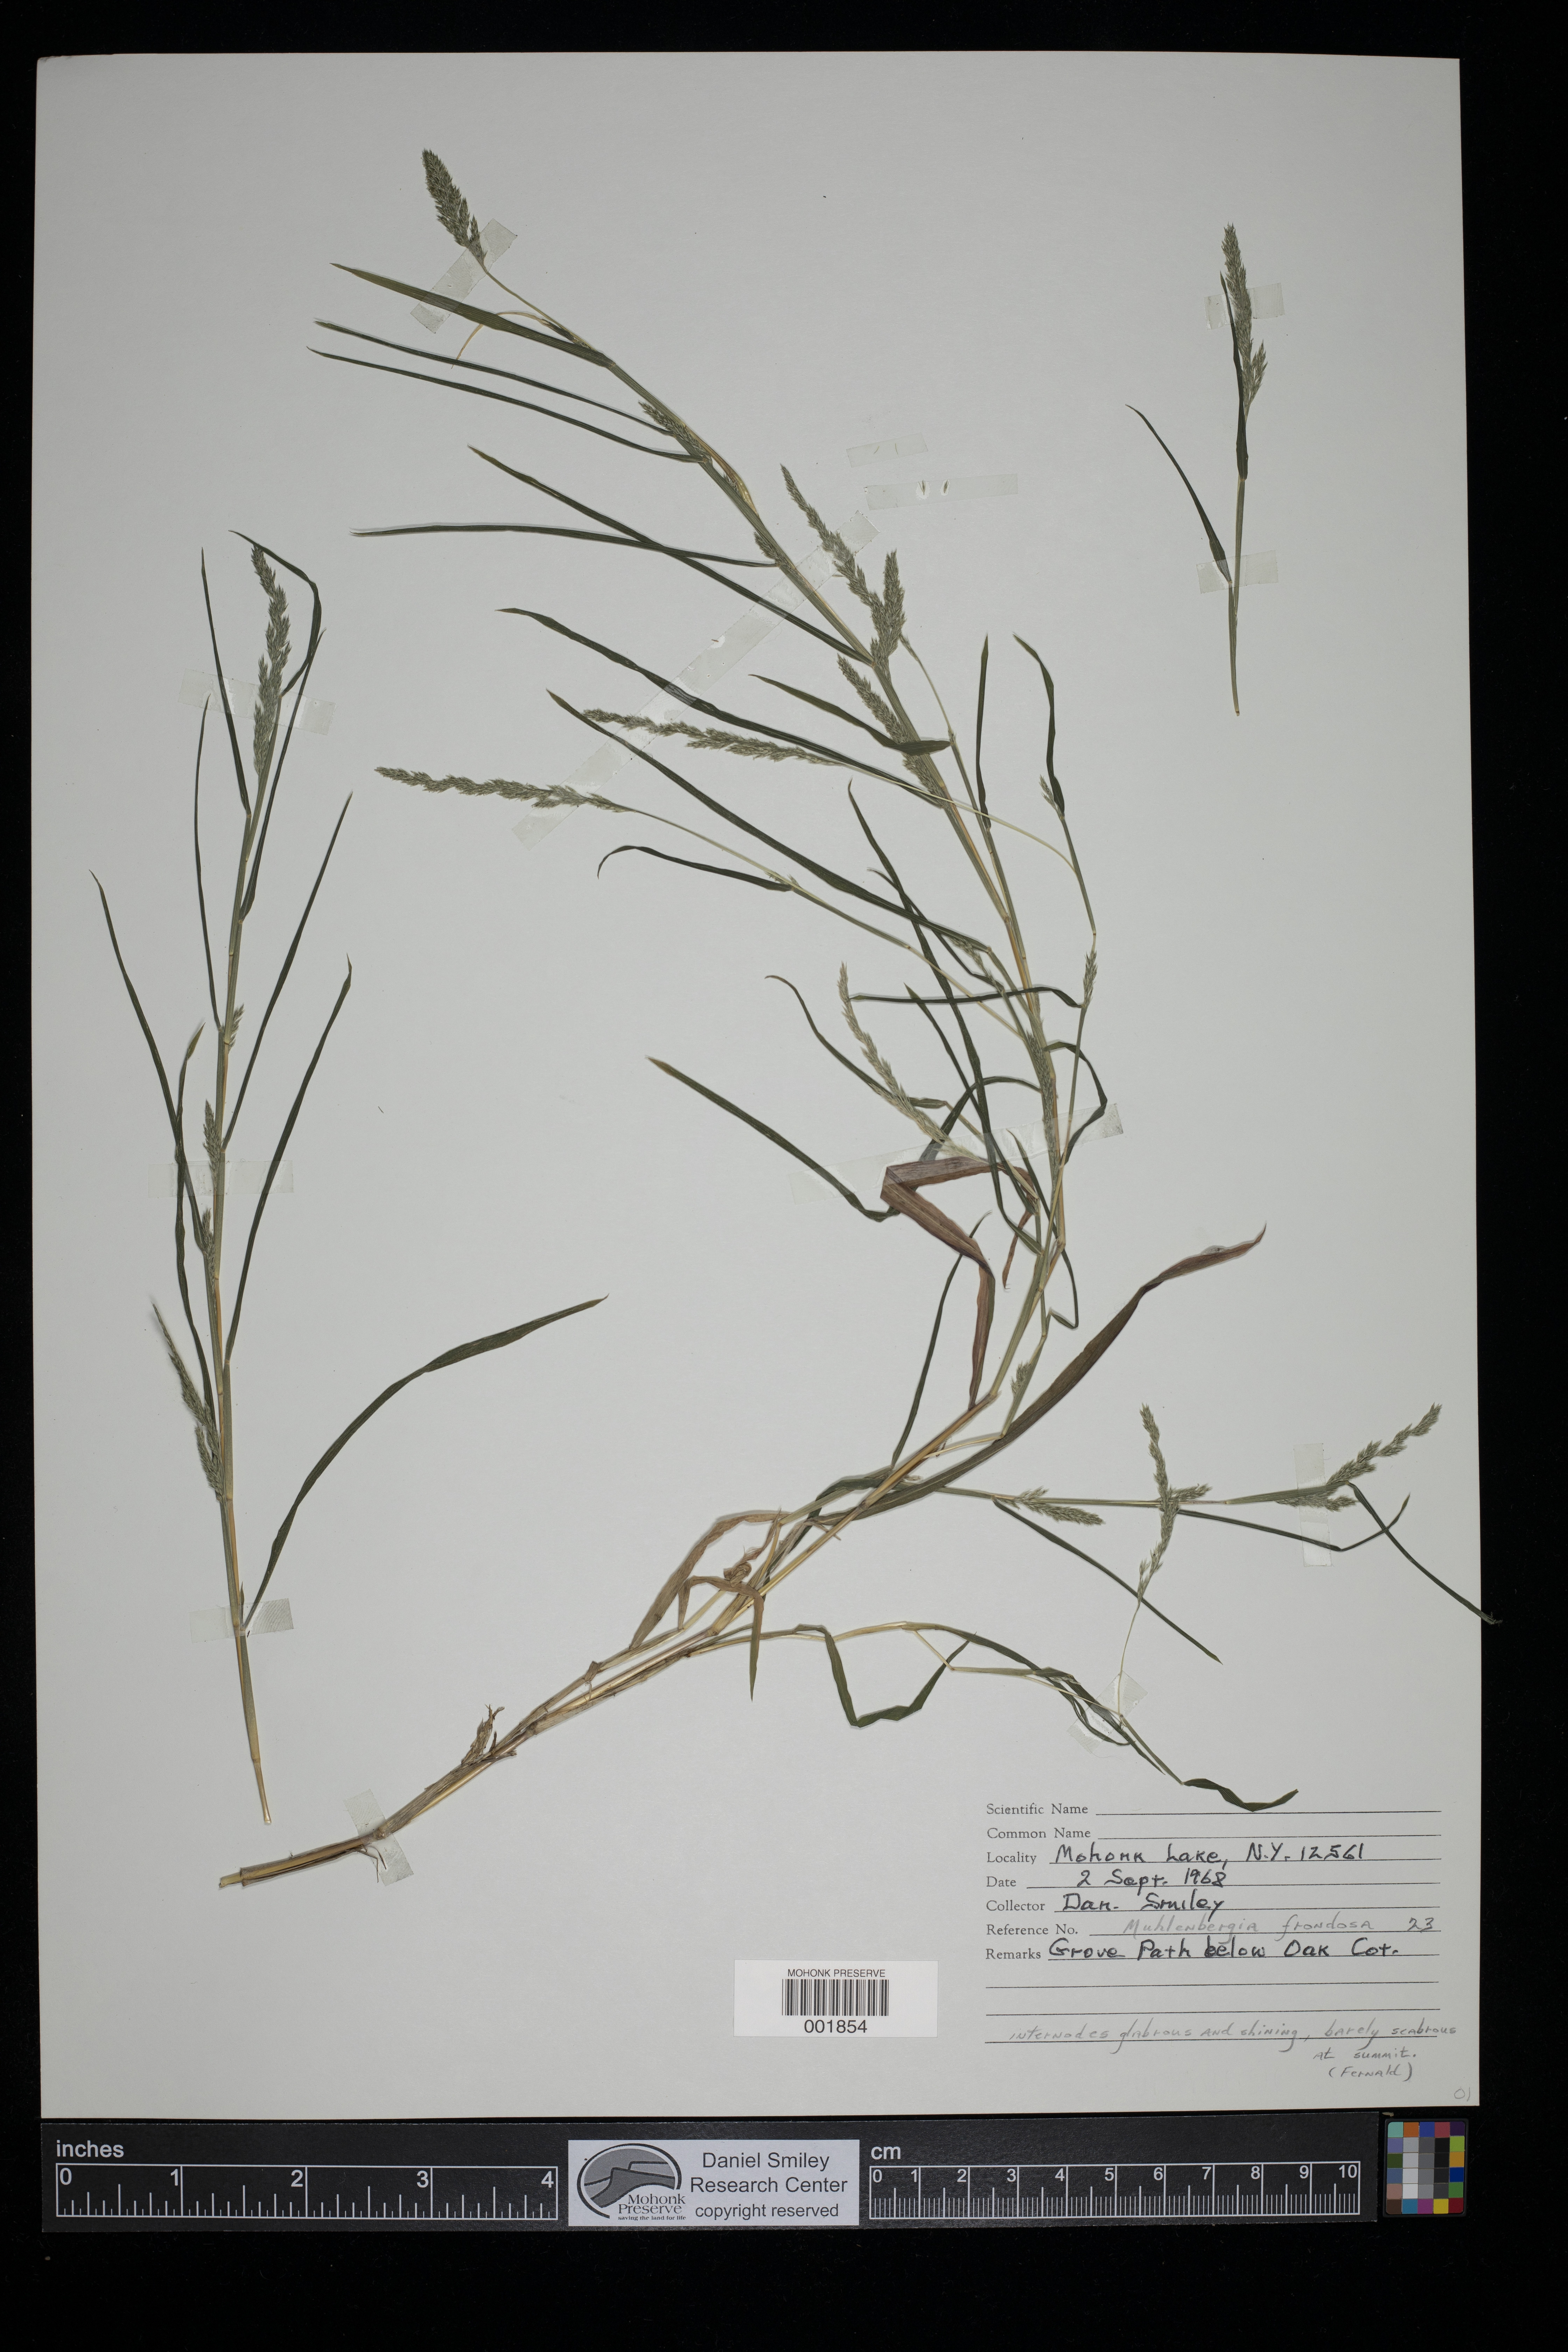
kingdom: Plantae
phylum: Tracheophyta
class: Liliopsida
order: Poales
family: Poaceae
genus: Muhlenbergia
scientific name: Muhlenbergia frondosa
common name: Common satingrass
